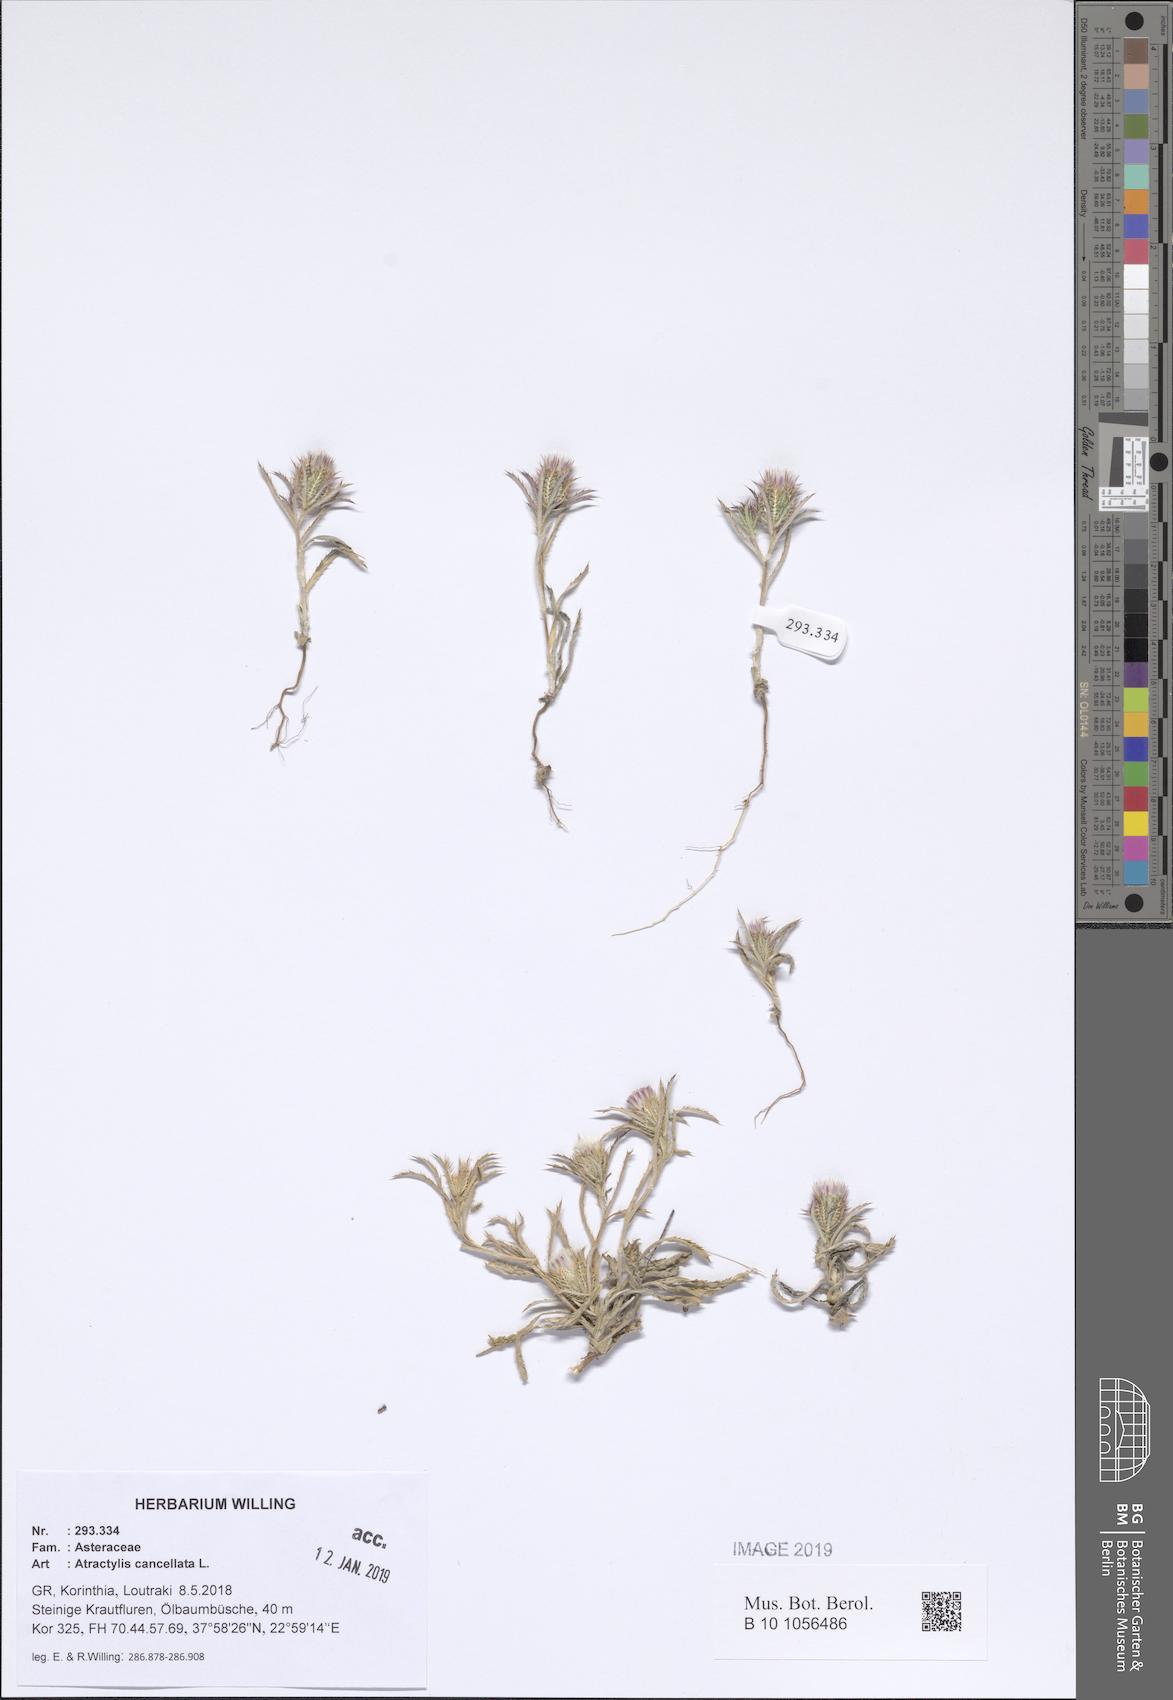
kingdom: Plantae
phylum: Tracheophyta
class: Magnoliopsida
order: Asterales
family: Asteraceae
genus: Atractylis
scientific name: Atractylis cancellata
